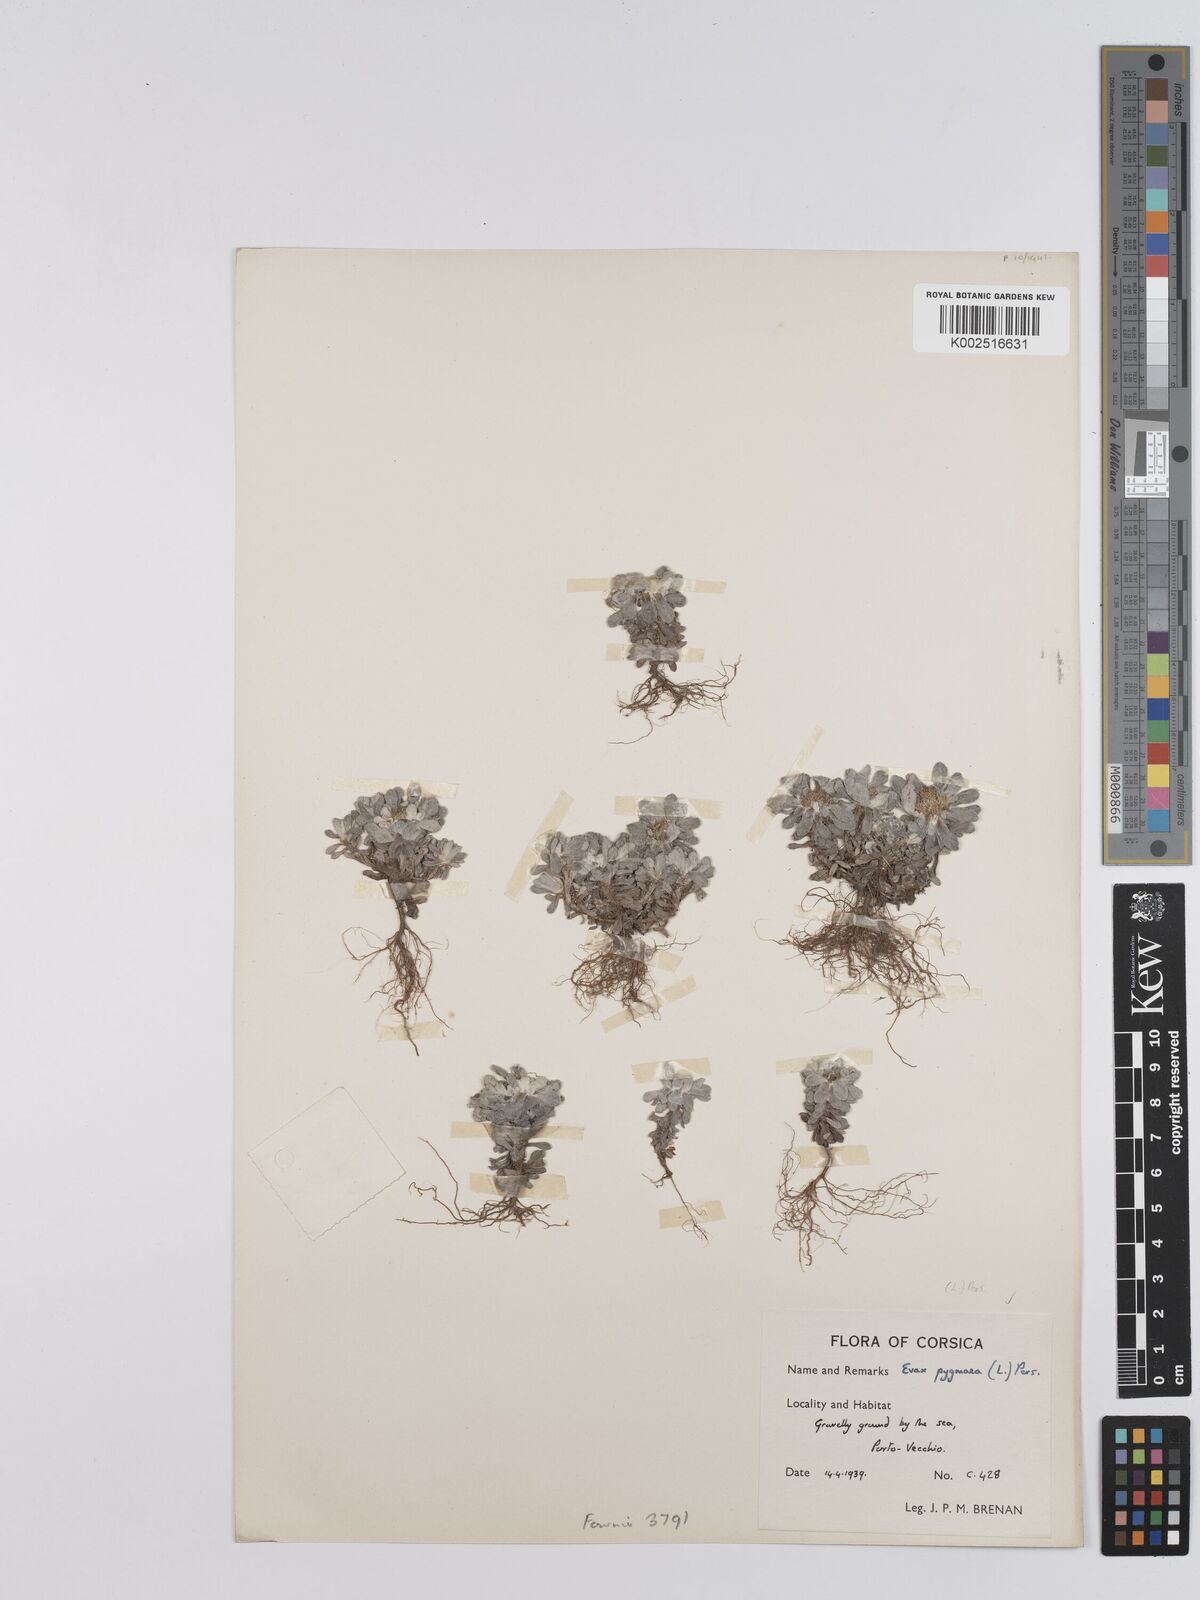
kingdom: Plantae
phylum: Tracheophyta
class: Magnoliopsida
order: Asterales
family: Asteraceae
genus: Filago
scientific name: Filago pygmaea
